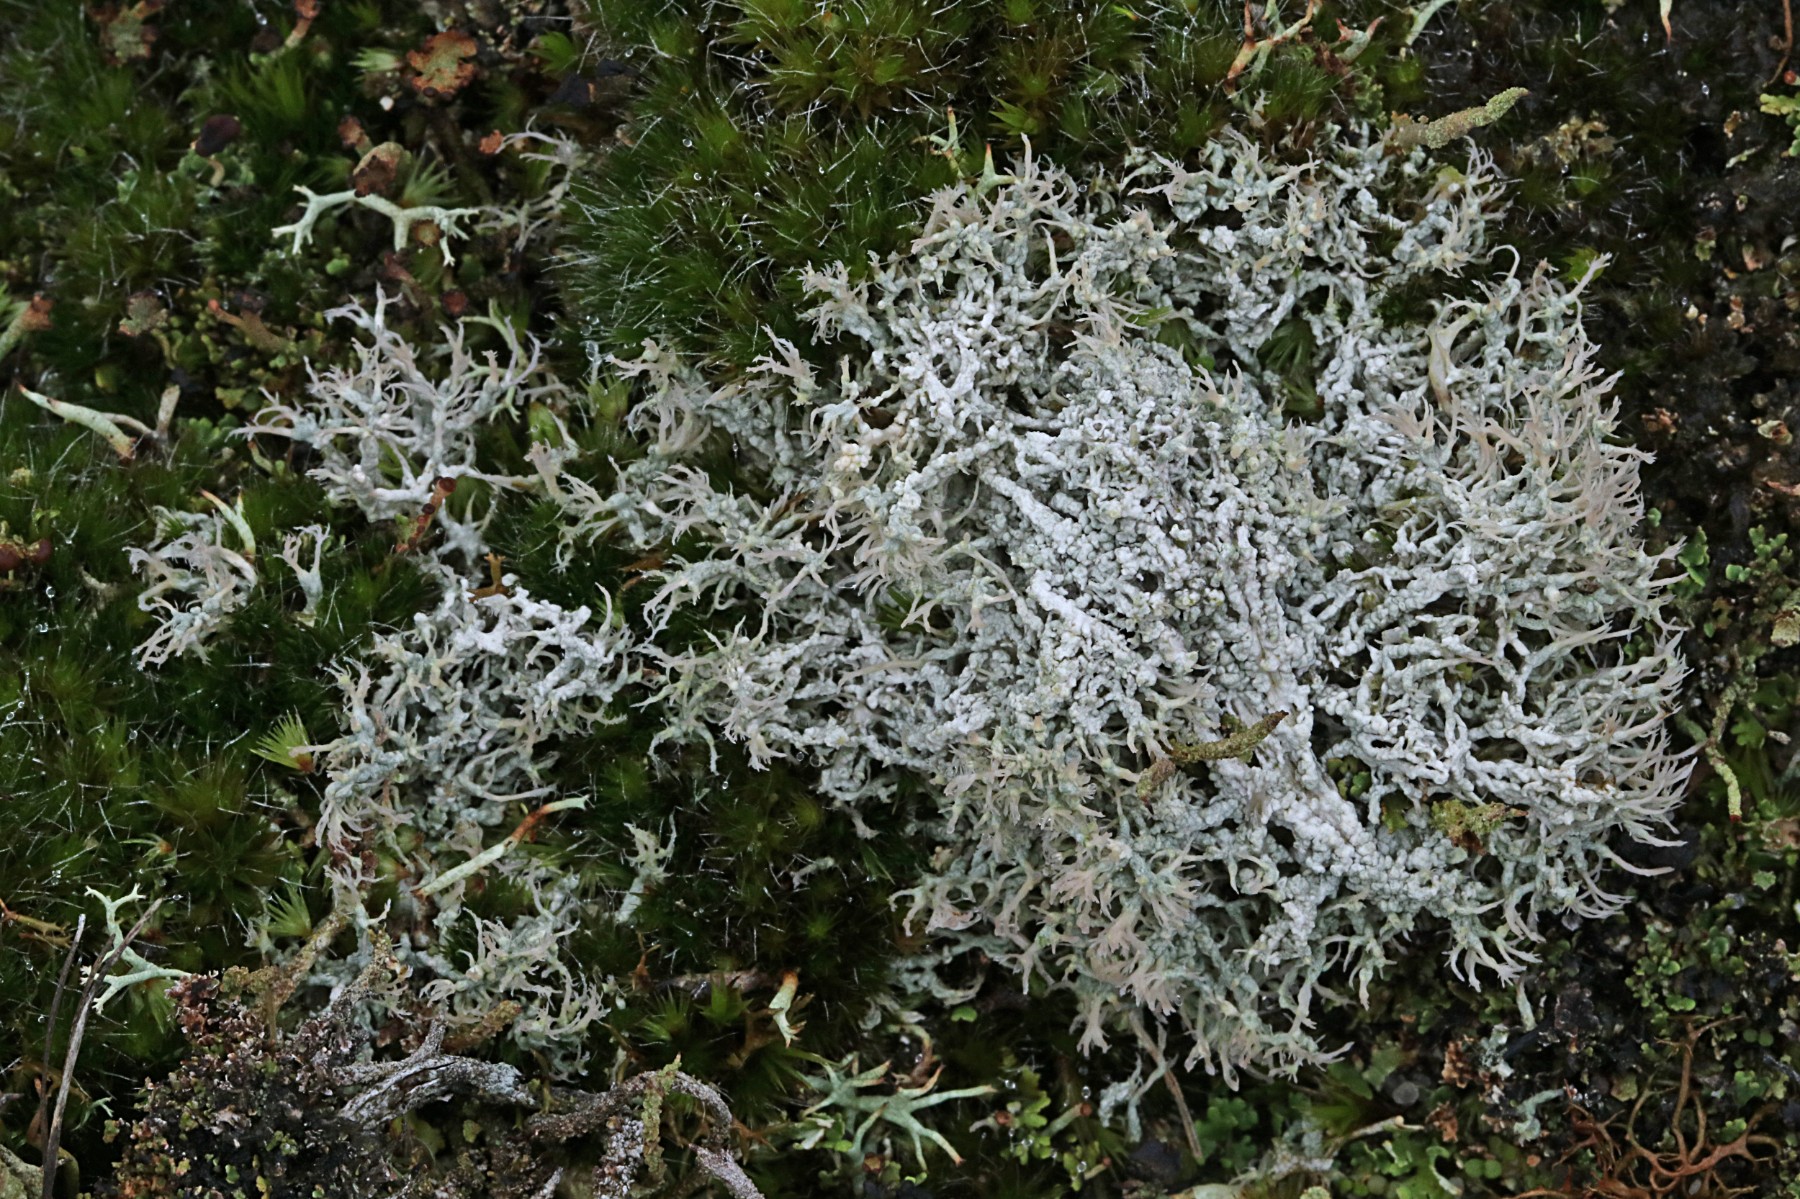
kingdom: Fungi
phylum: Ascomycota
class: Lecanoromycetes
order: Pertusariales
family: Ochrolechiaceae
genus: Ochrolechia
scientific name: Ochrolechia frigida
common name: fjeld-blegskivelav
